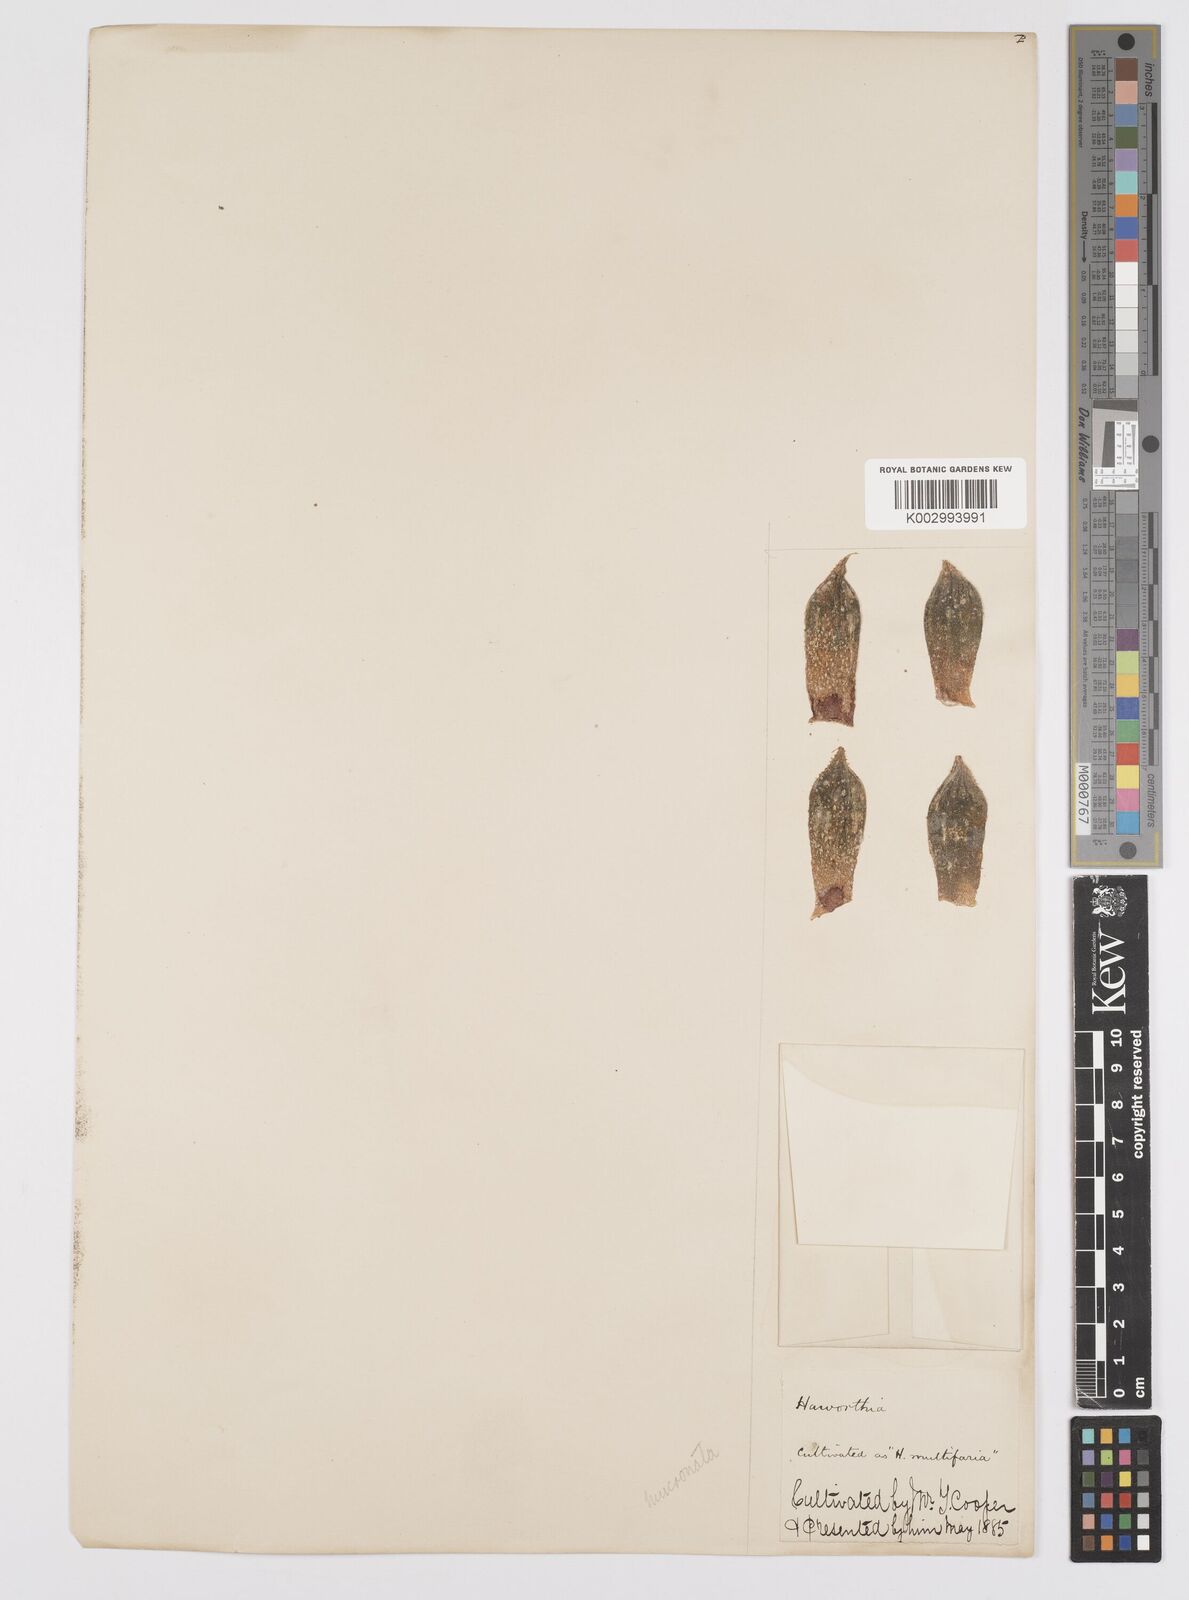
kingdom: Plantae
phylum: Tracheophyta
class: Liliopsida
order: Asparagales
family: Asphodelaceae
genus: Haworthia
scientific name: Haworthia
